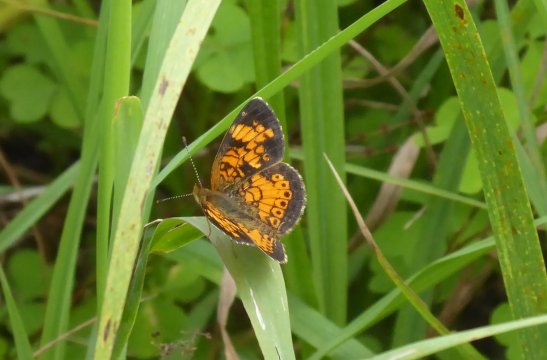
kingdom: Animalia
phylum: Arthropoda
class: Insecta
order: Lepidoptera
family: Nymphalidae
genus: Phyciodes
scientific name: Phyciodes
